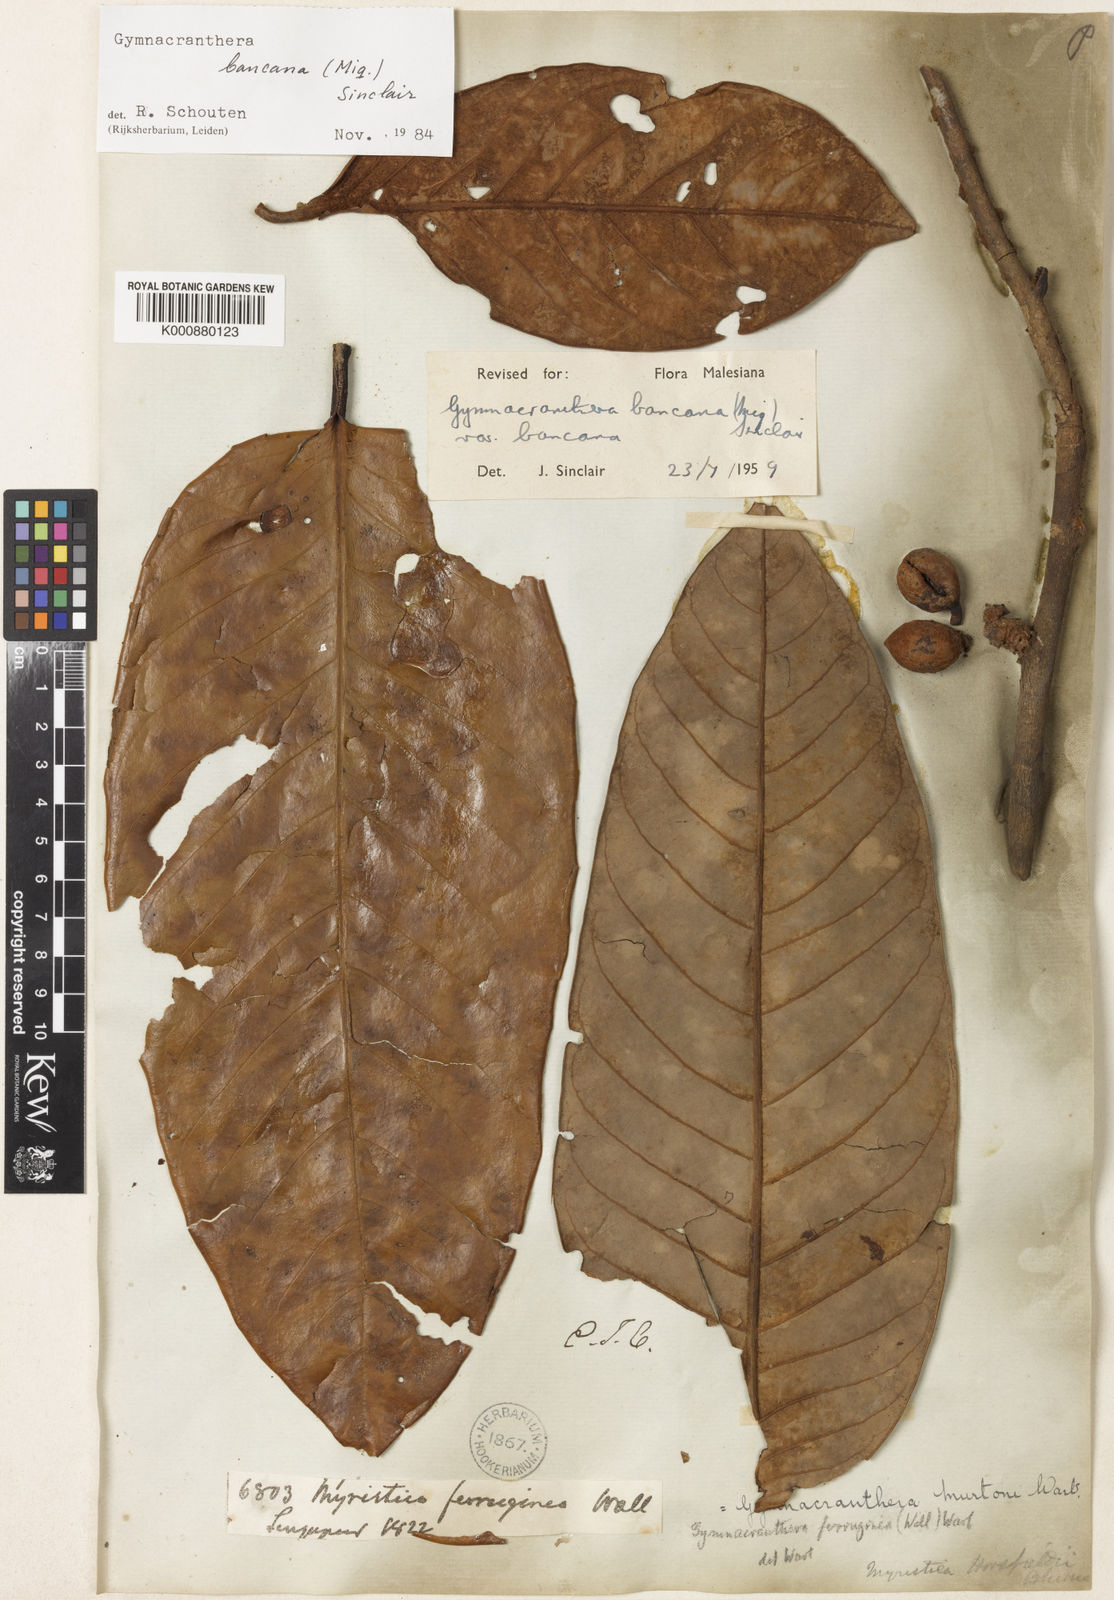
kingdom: Plantae
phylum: Tracheophyta
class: Magnoliopsida
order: Magnoliales
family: Myristicaceae
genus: Gymnacranthera
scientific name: Gymnacranthera bancana
